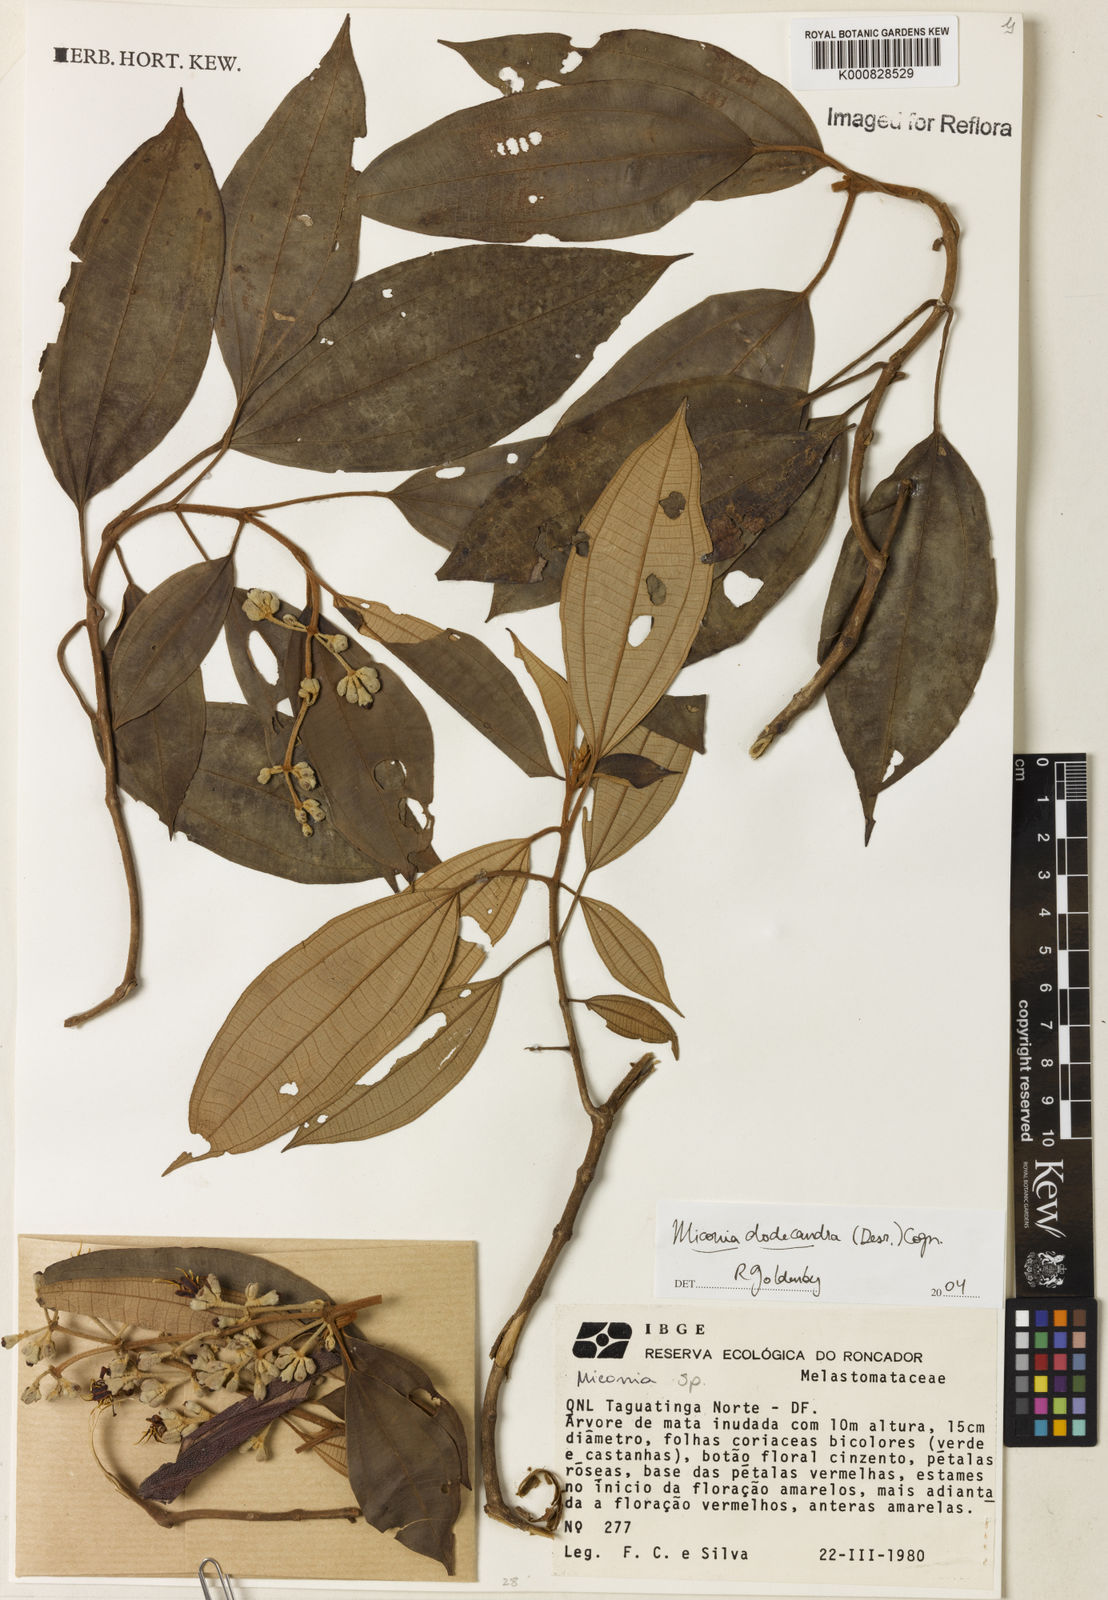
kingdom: Plantae
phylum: Tracheophyta
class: Magnoliopsida
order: Myrtales
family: Melastomataceae
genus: Miconia
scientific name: Miconia dodecandra
